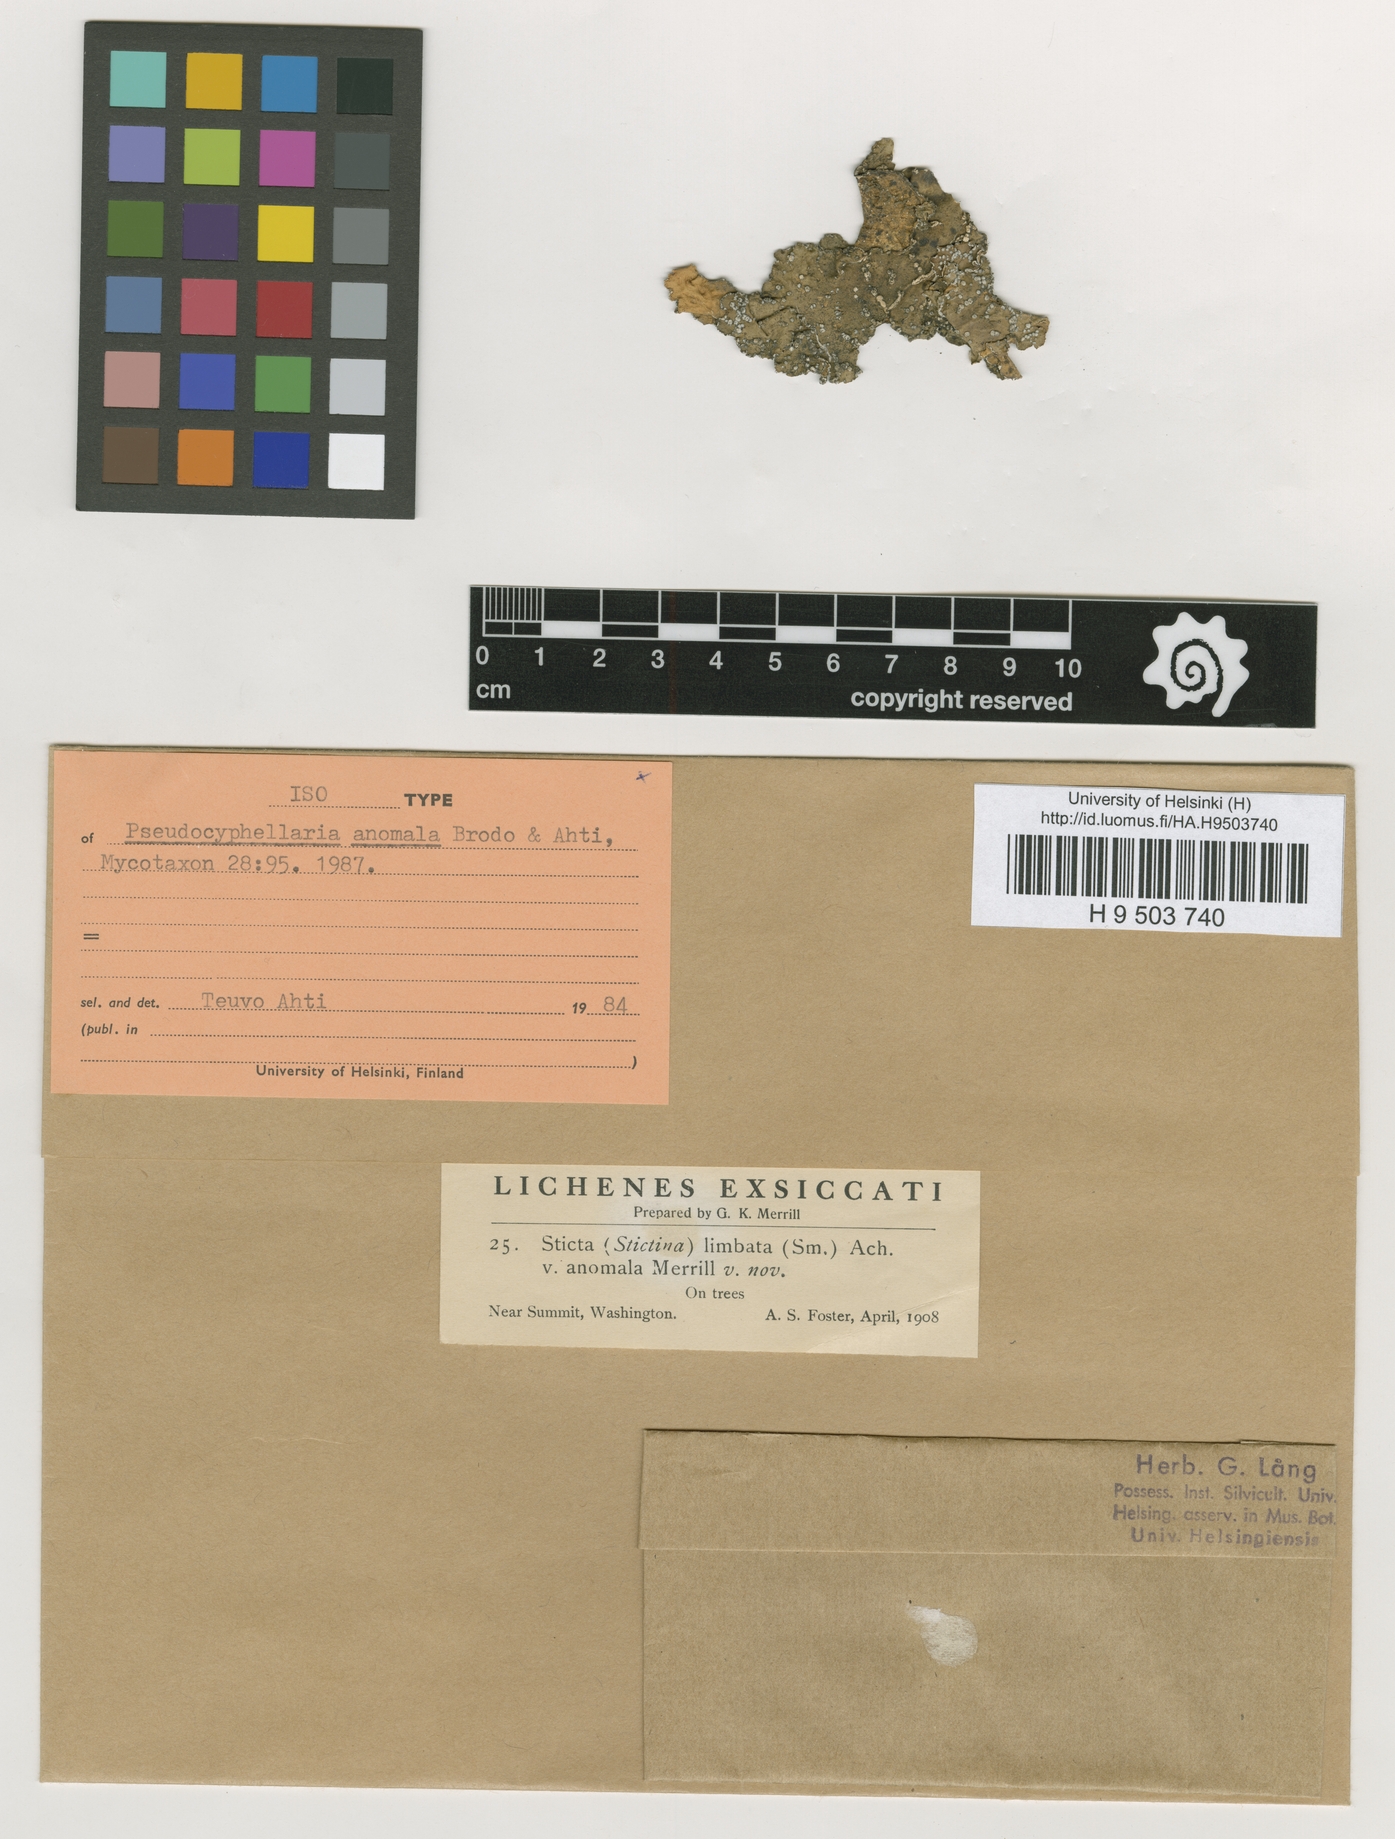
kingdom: Fungi
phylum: Ascomycota
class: Lecanoromycetes
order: Peltigerales
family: Lobariaceae
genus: Lobaria
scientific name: Lobaria anomala
